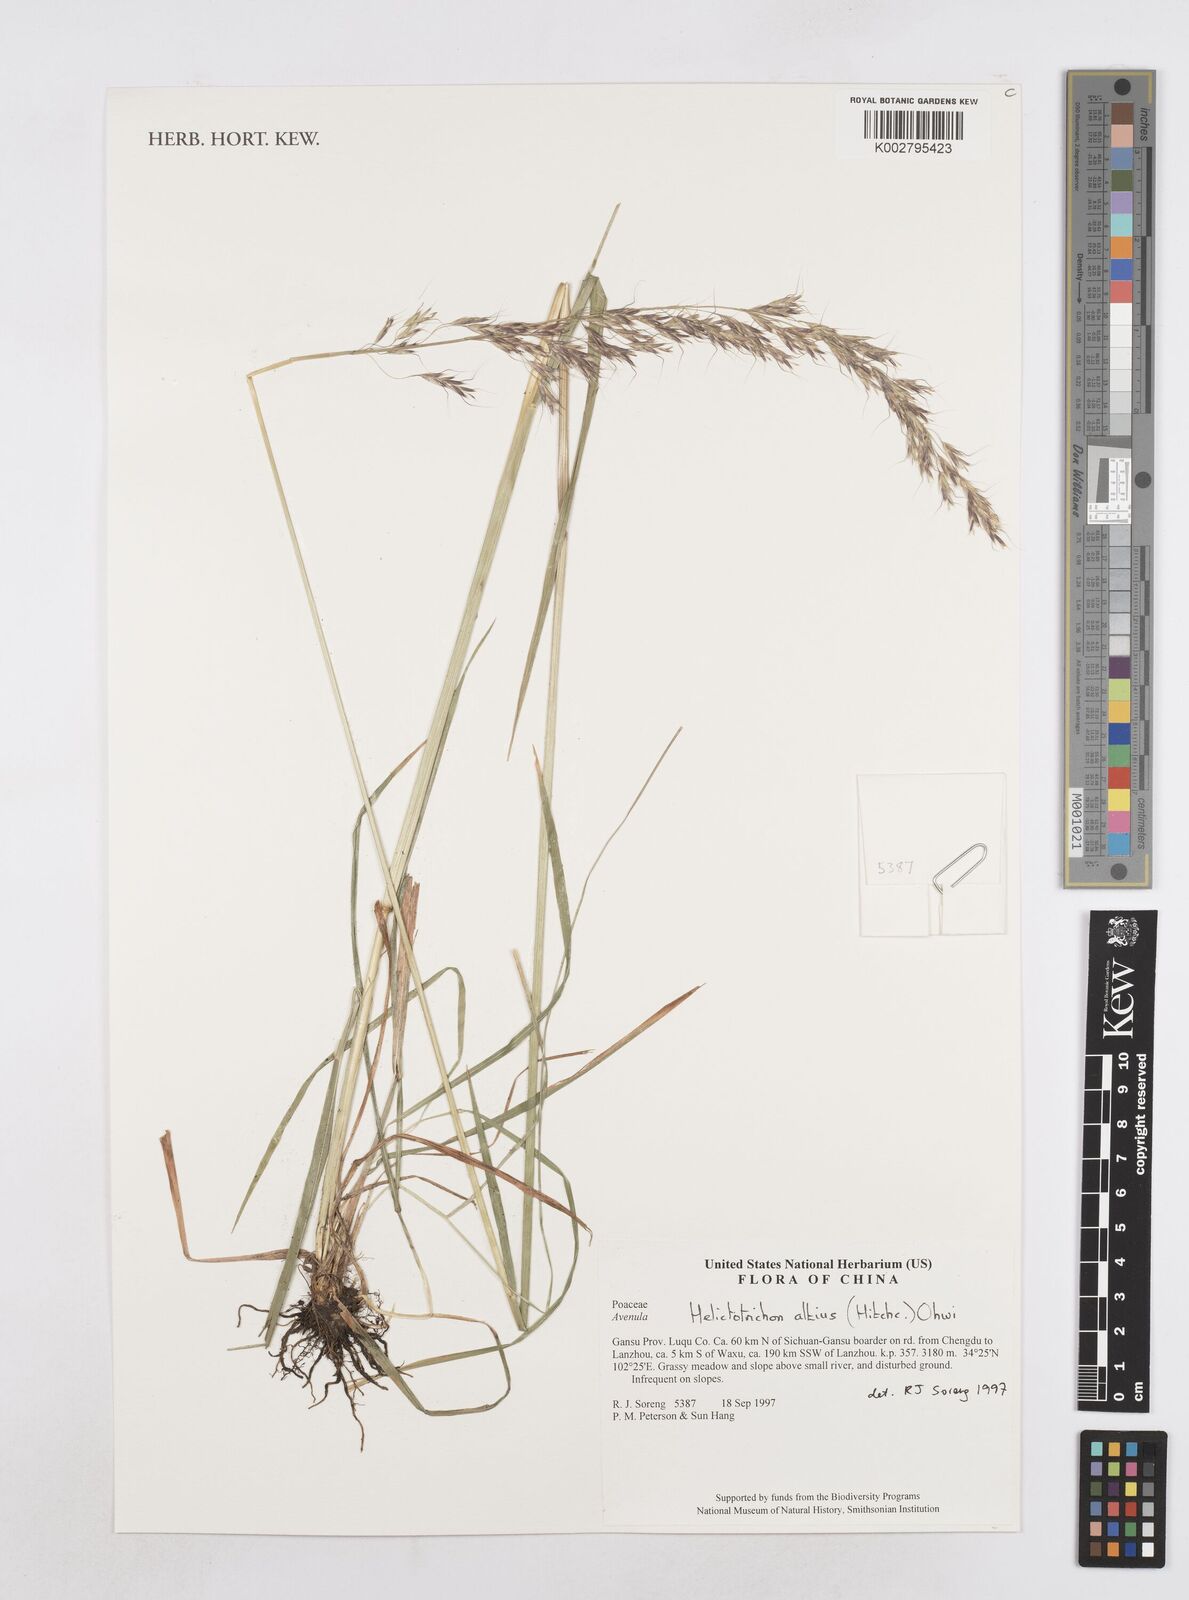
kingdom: Plantae
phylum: Tracheophyta
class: Liliopsida
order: Poales
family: Poaceae
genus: Helictotrichon
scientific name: Helictotrichon
